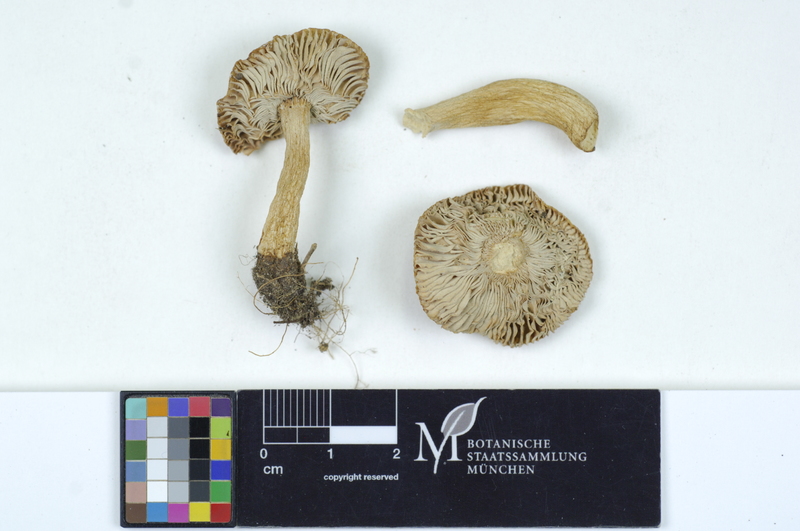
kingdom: Fungi
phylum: Basidiomycota
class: Agaricomycetes
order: Russulales
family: Russulaceae
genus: Russula
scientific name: Russula puellaris
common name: Yellowing brittlegill
